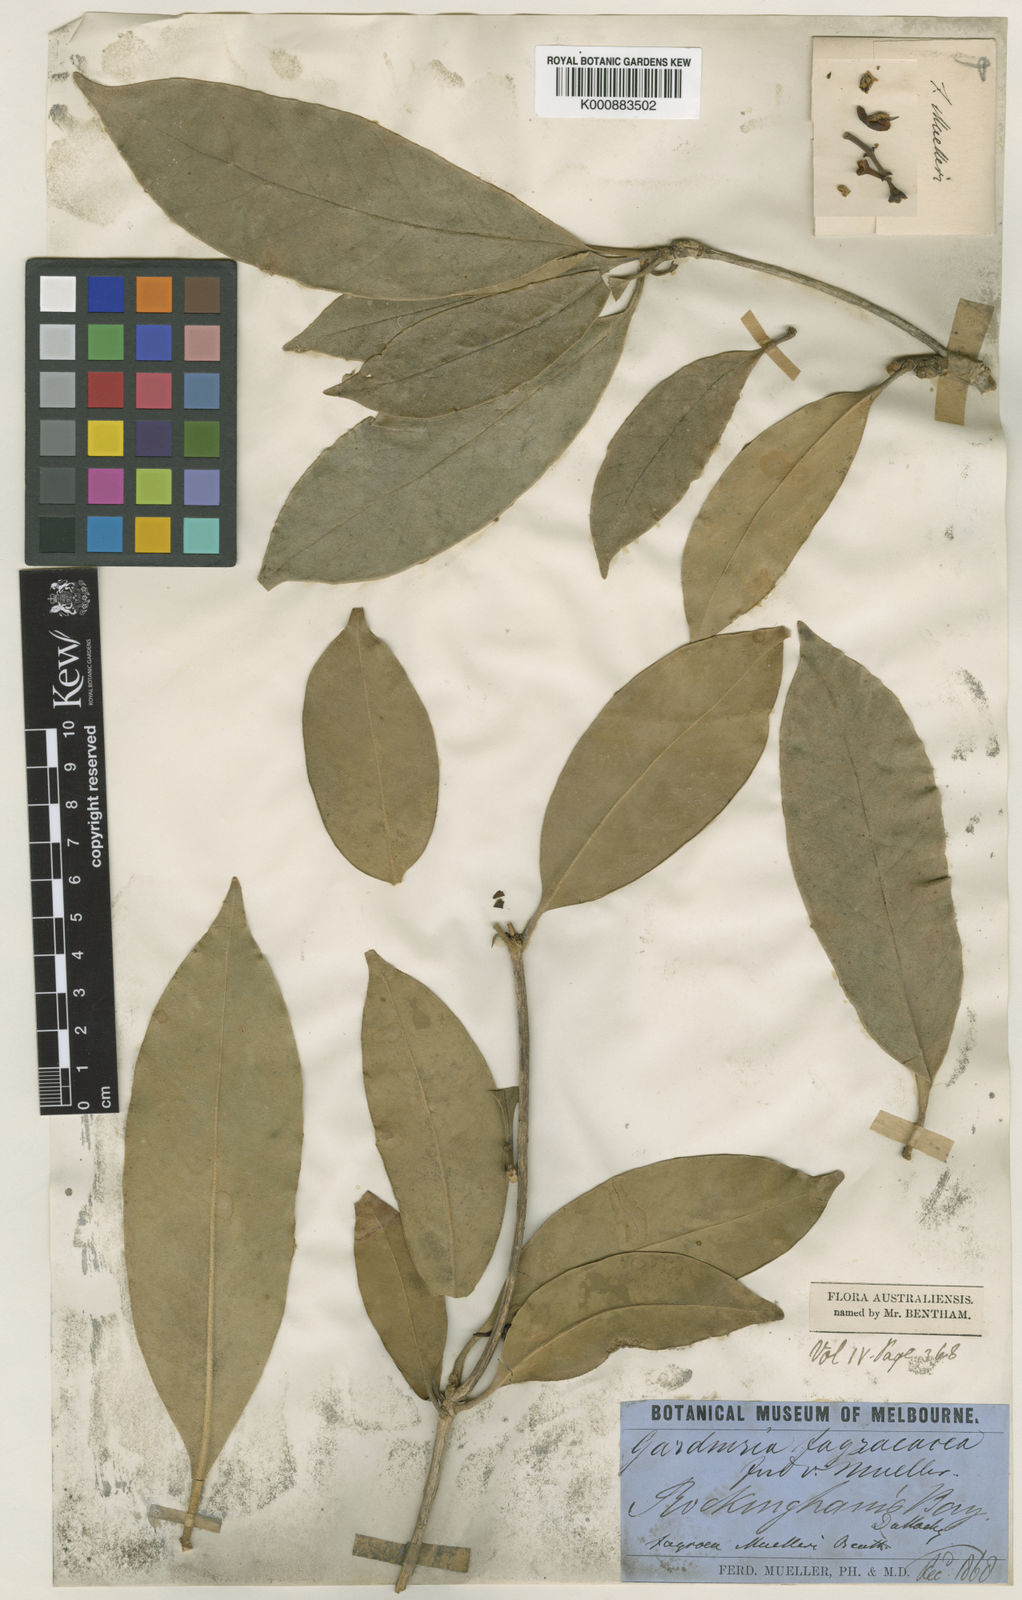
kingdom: Plantae
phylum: Tracheophyta
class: Magnoliopsida
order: Gentianales
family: Gentianaceae
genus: Fagraea
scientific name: Fagraea gracilipes
